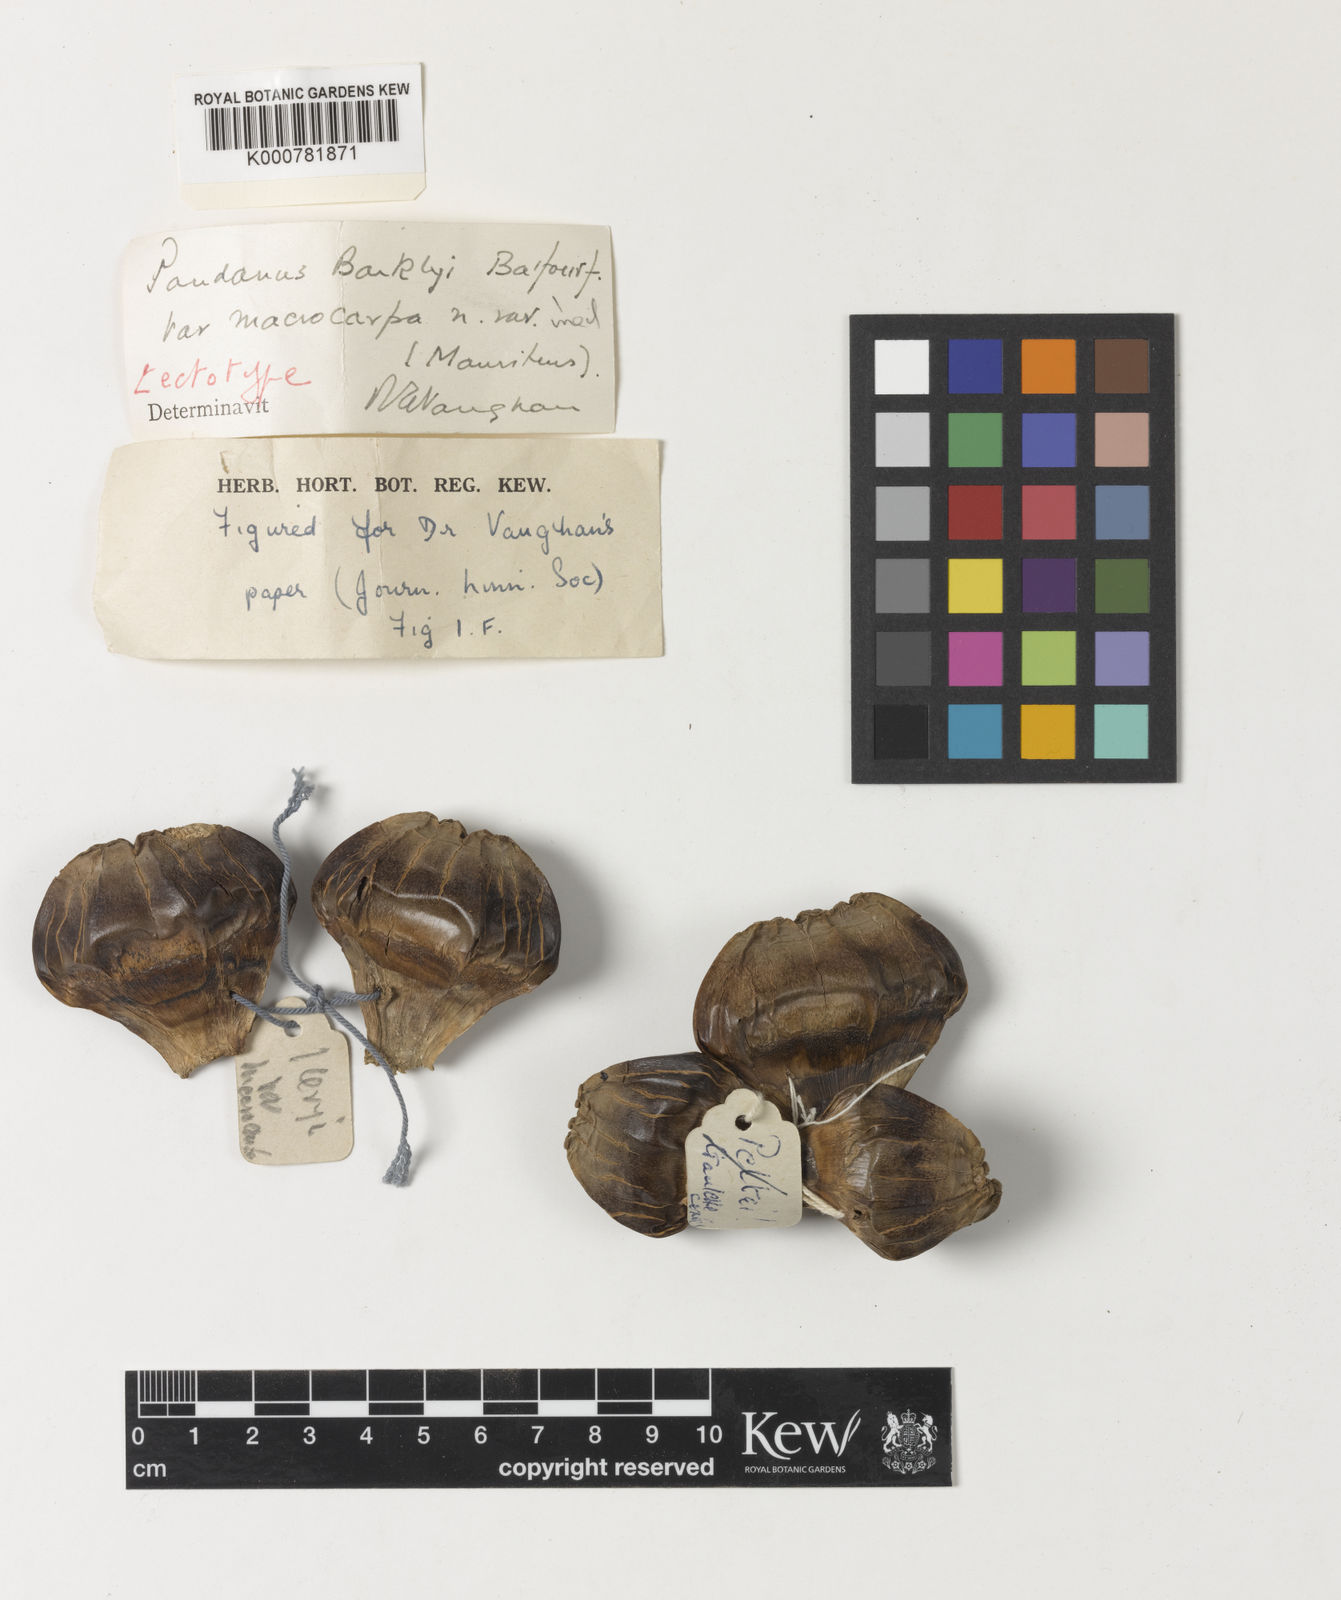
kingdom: Plantae
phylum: Tracheophyta
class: Liliopsida
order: Pandanales
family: Pandanaceae
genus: Pandanus
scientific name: Pandanus
